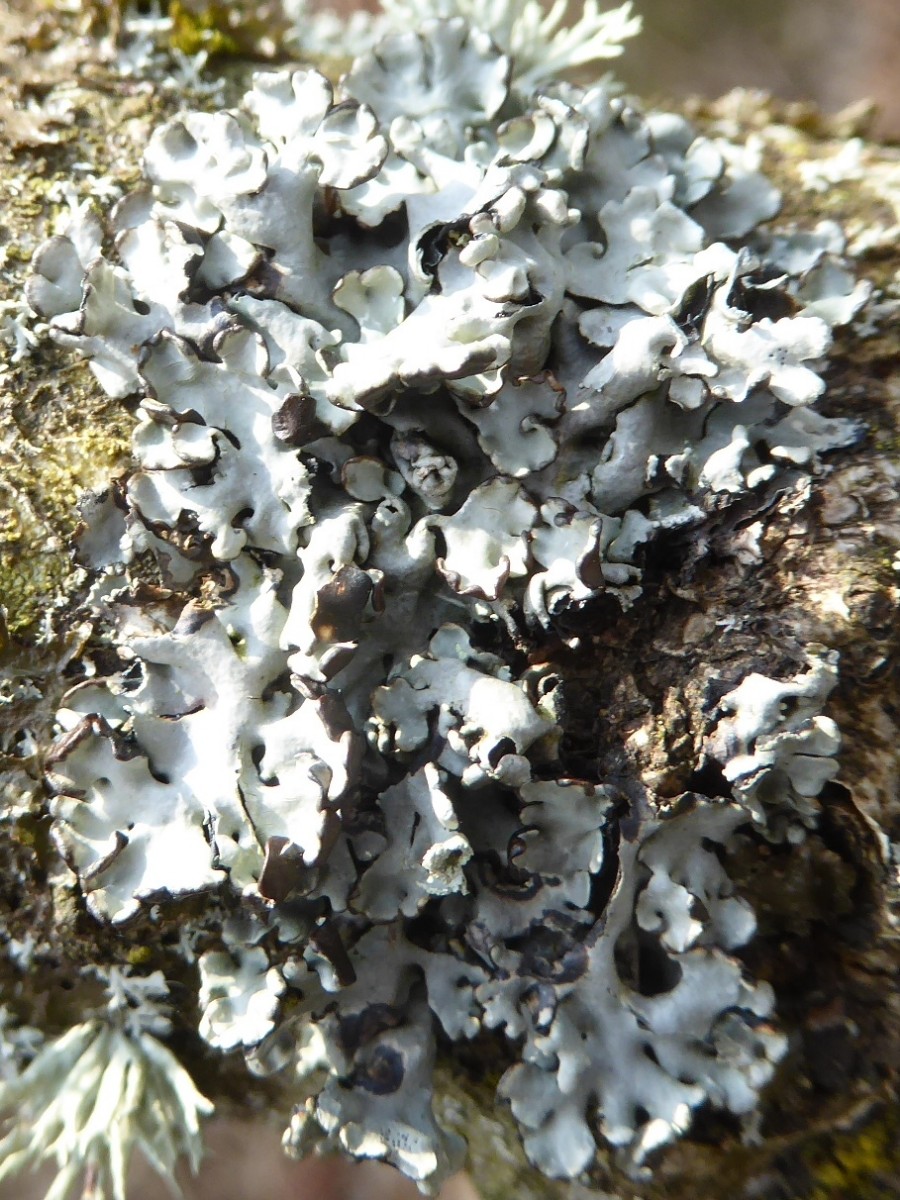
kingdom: Fungi
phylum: Ascomycota
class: Lecanoromycetes
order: Lecanorales
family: Parmeliaceae
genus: Hypogymnia
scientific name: Hypogymnia physodes
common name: almindelig kvistlav
